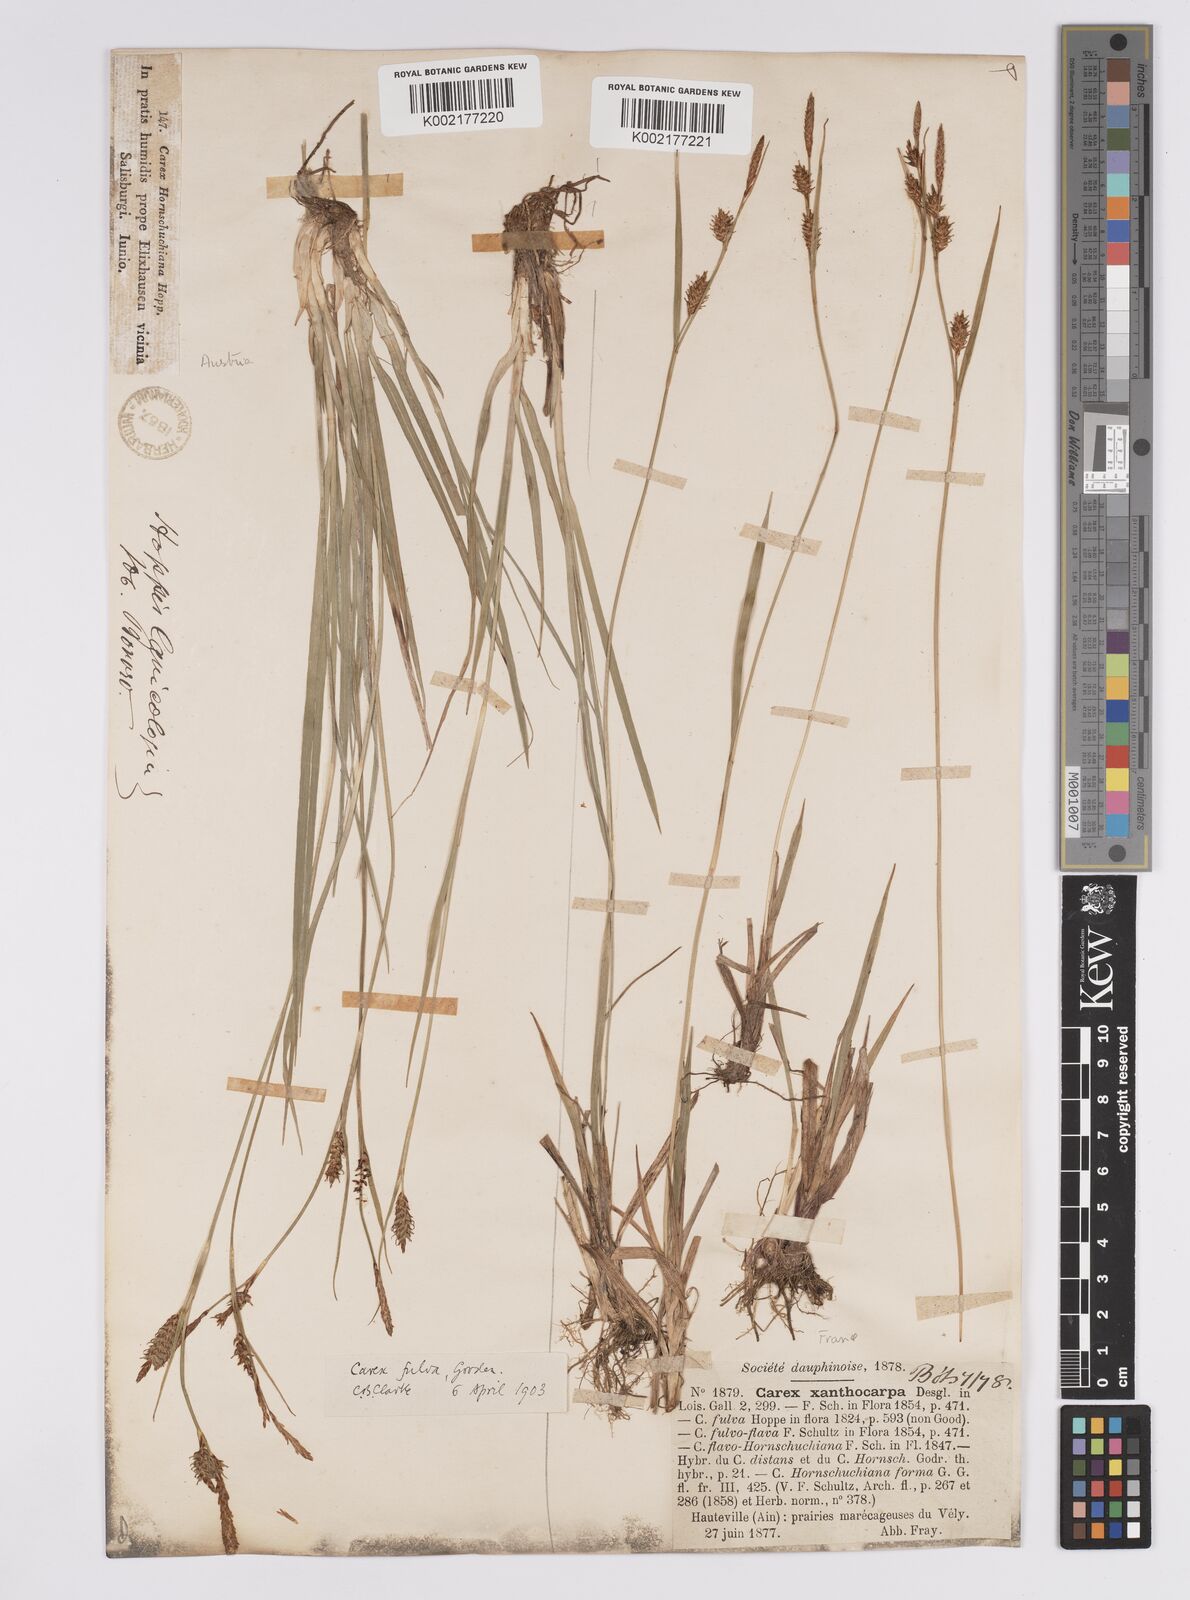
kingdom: Plantae
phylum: Tracheophyta
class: Liliopsida
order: Poales
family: Cyperaceae
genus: Carex
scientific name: Carex hostiana
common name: Tawny sedge
